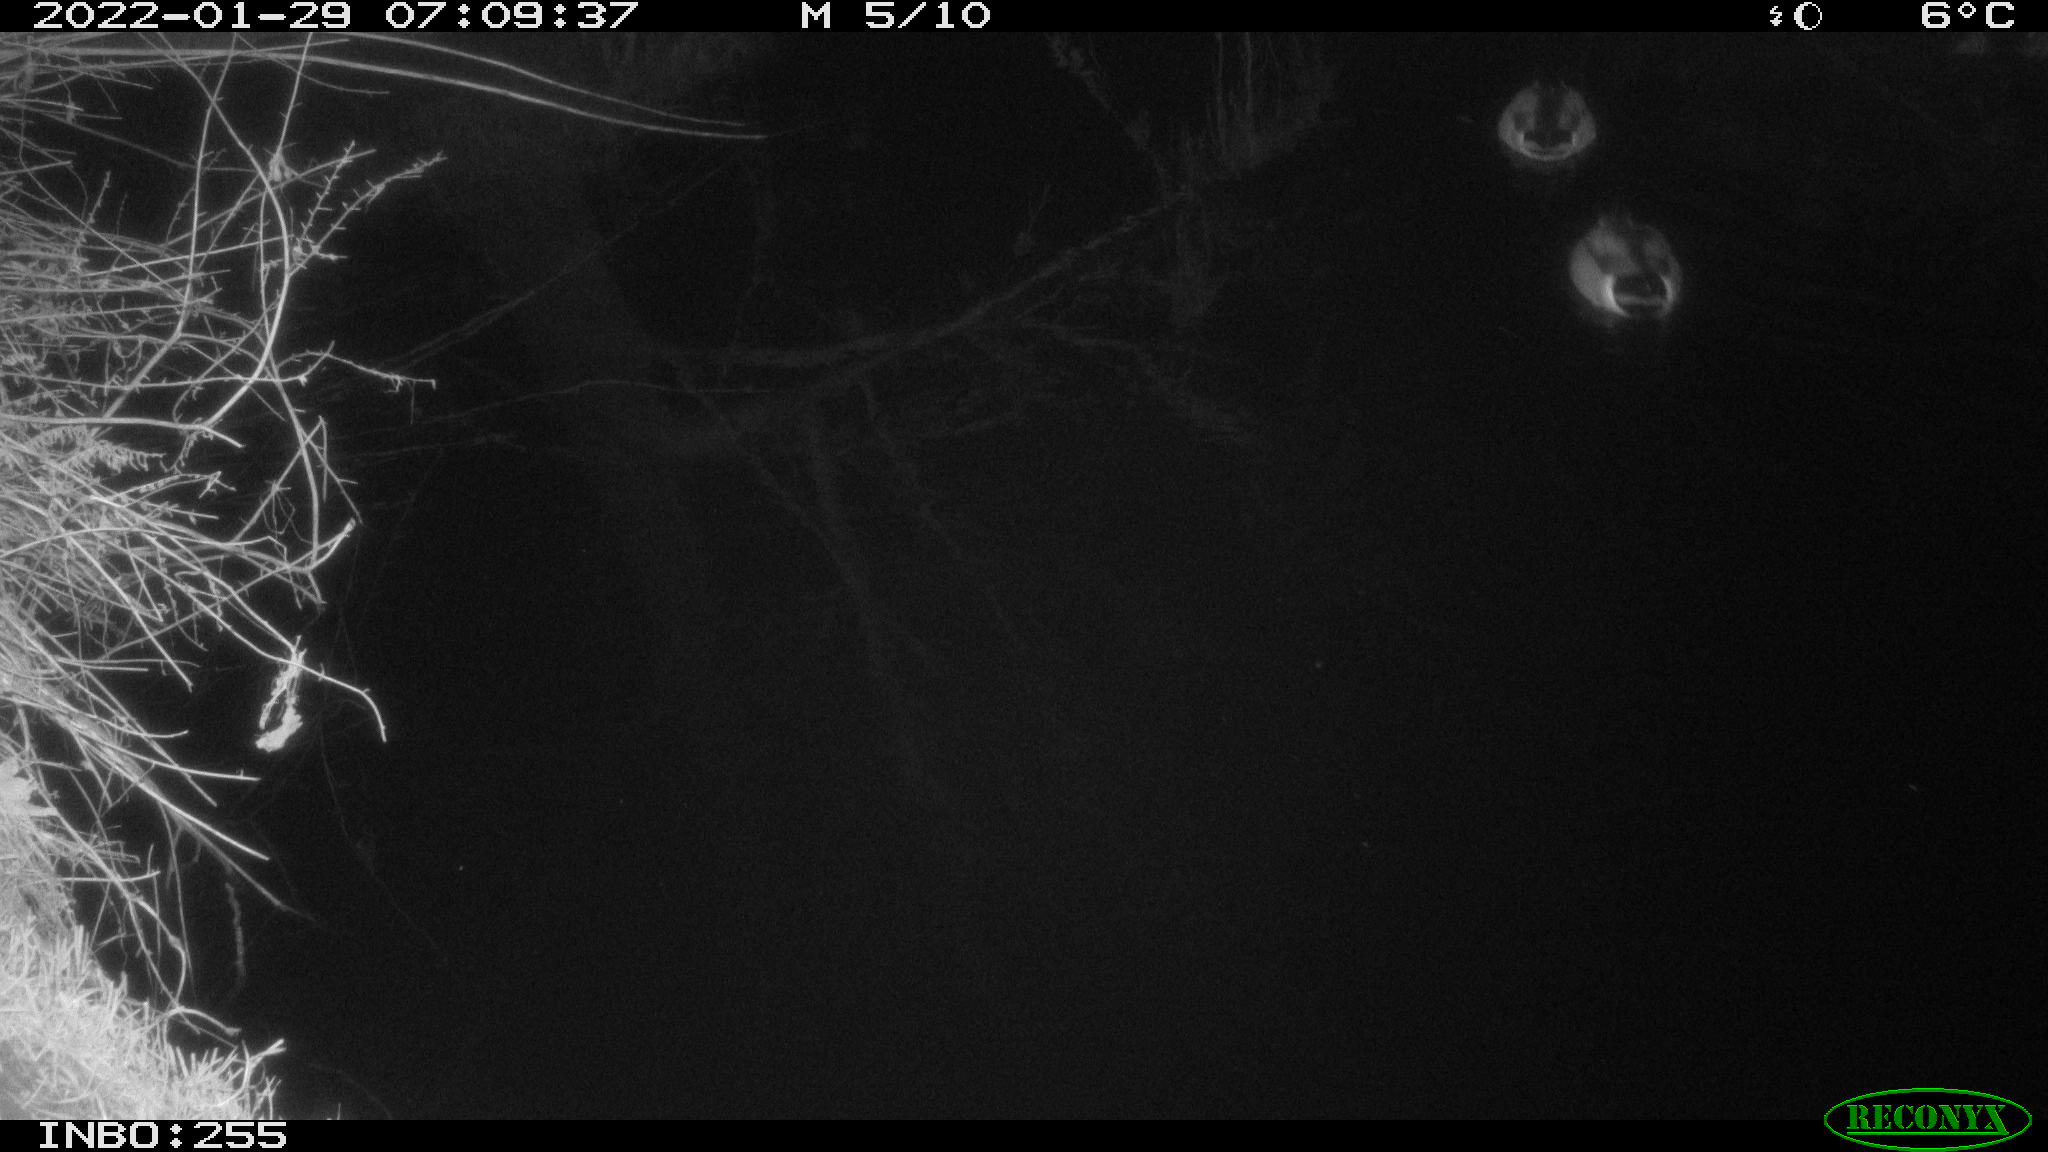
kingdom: Animalia
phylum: Chordata
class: Aves
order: Anseriformes
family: Anatidae
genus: Anas
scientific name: Anas
